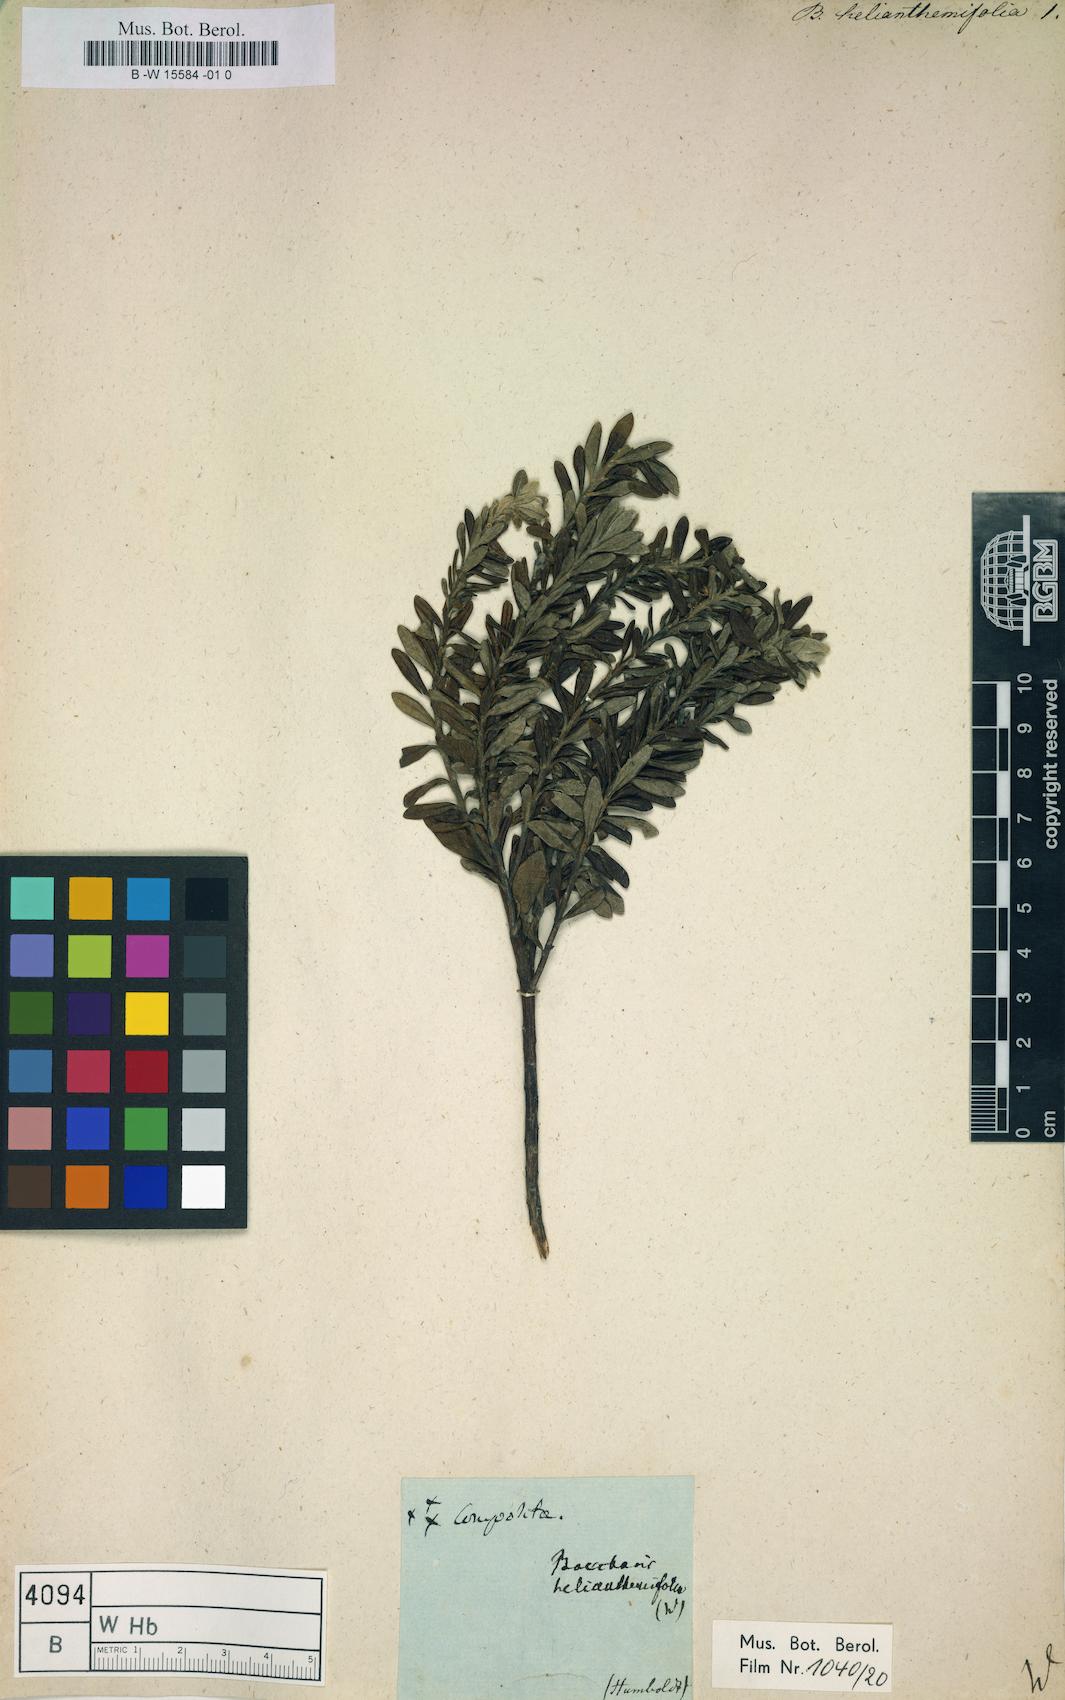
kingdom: Plantae
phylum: Tracheophyta
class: Magnoliopsida
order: Asterales
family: Asteraceae
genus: Baccharis
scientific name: Baccharis
